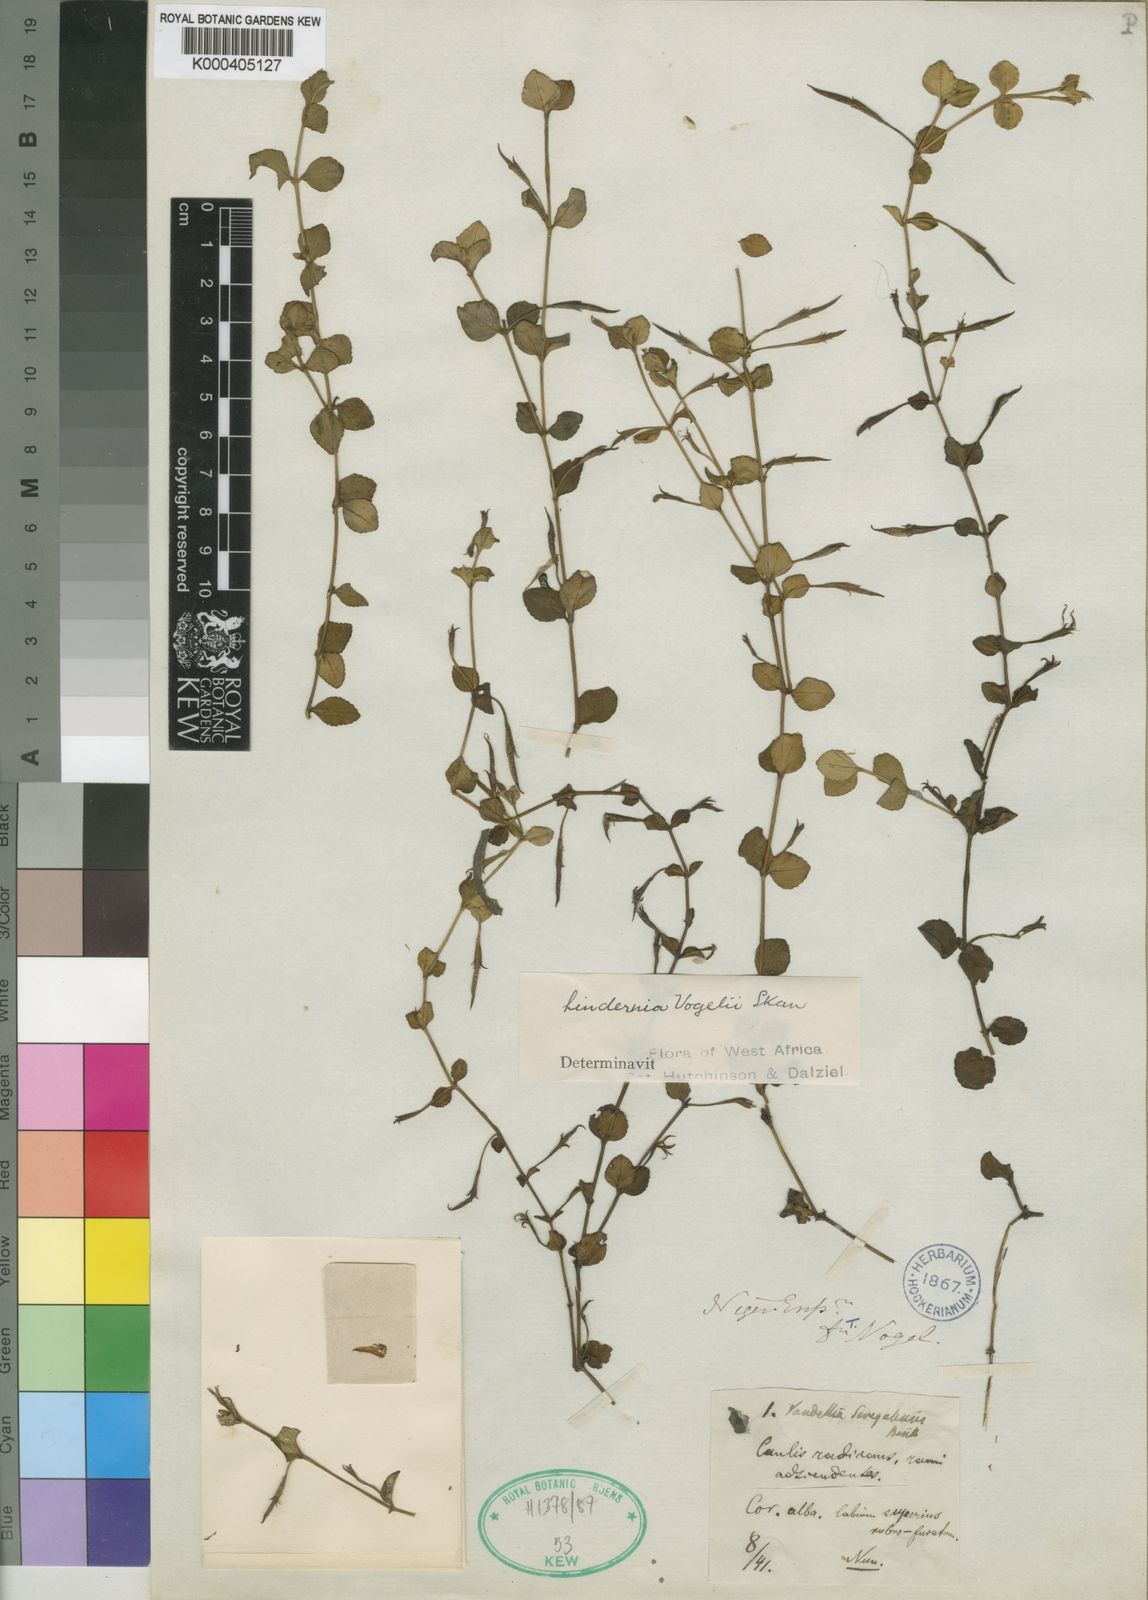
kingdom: Plantae
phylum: Tracheophyta
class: Magnoliopsida
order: Lamiales
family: Linderniaceae
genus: Vandellia
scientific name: Vandellia vogelii
